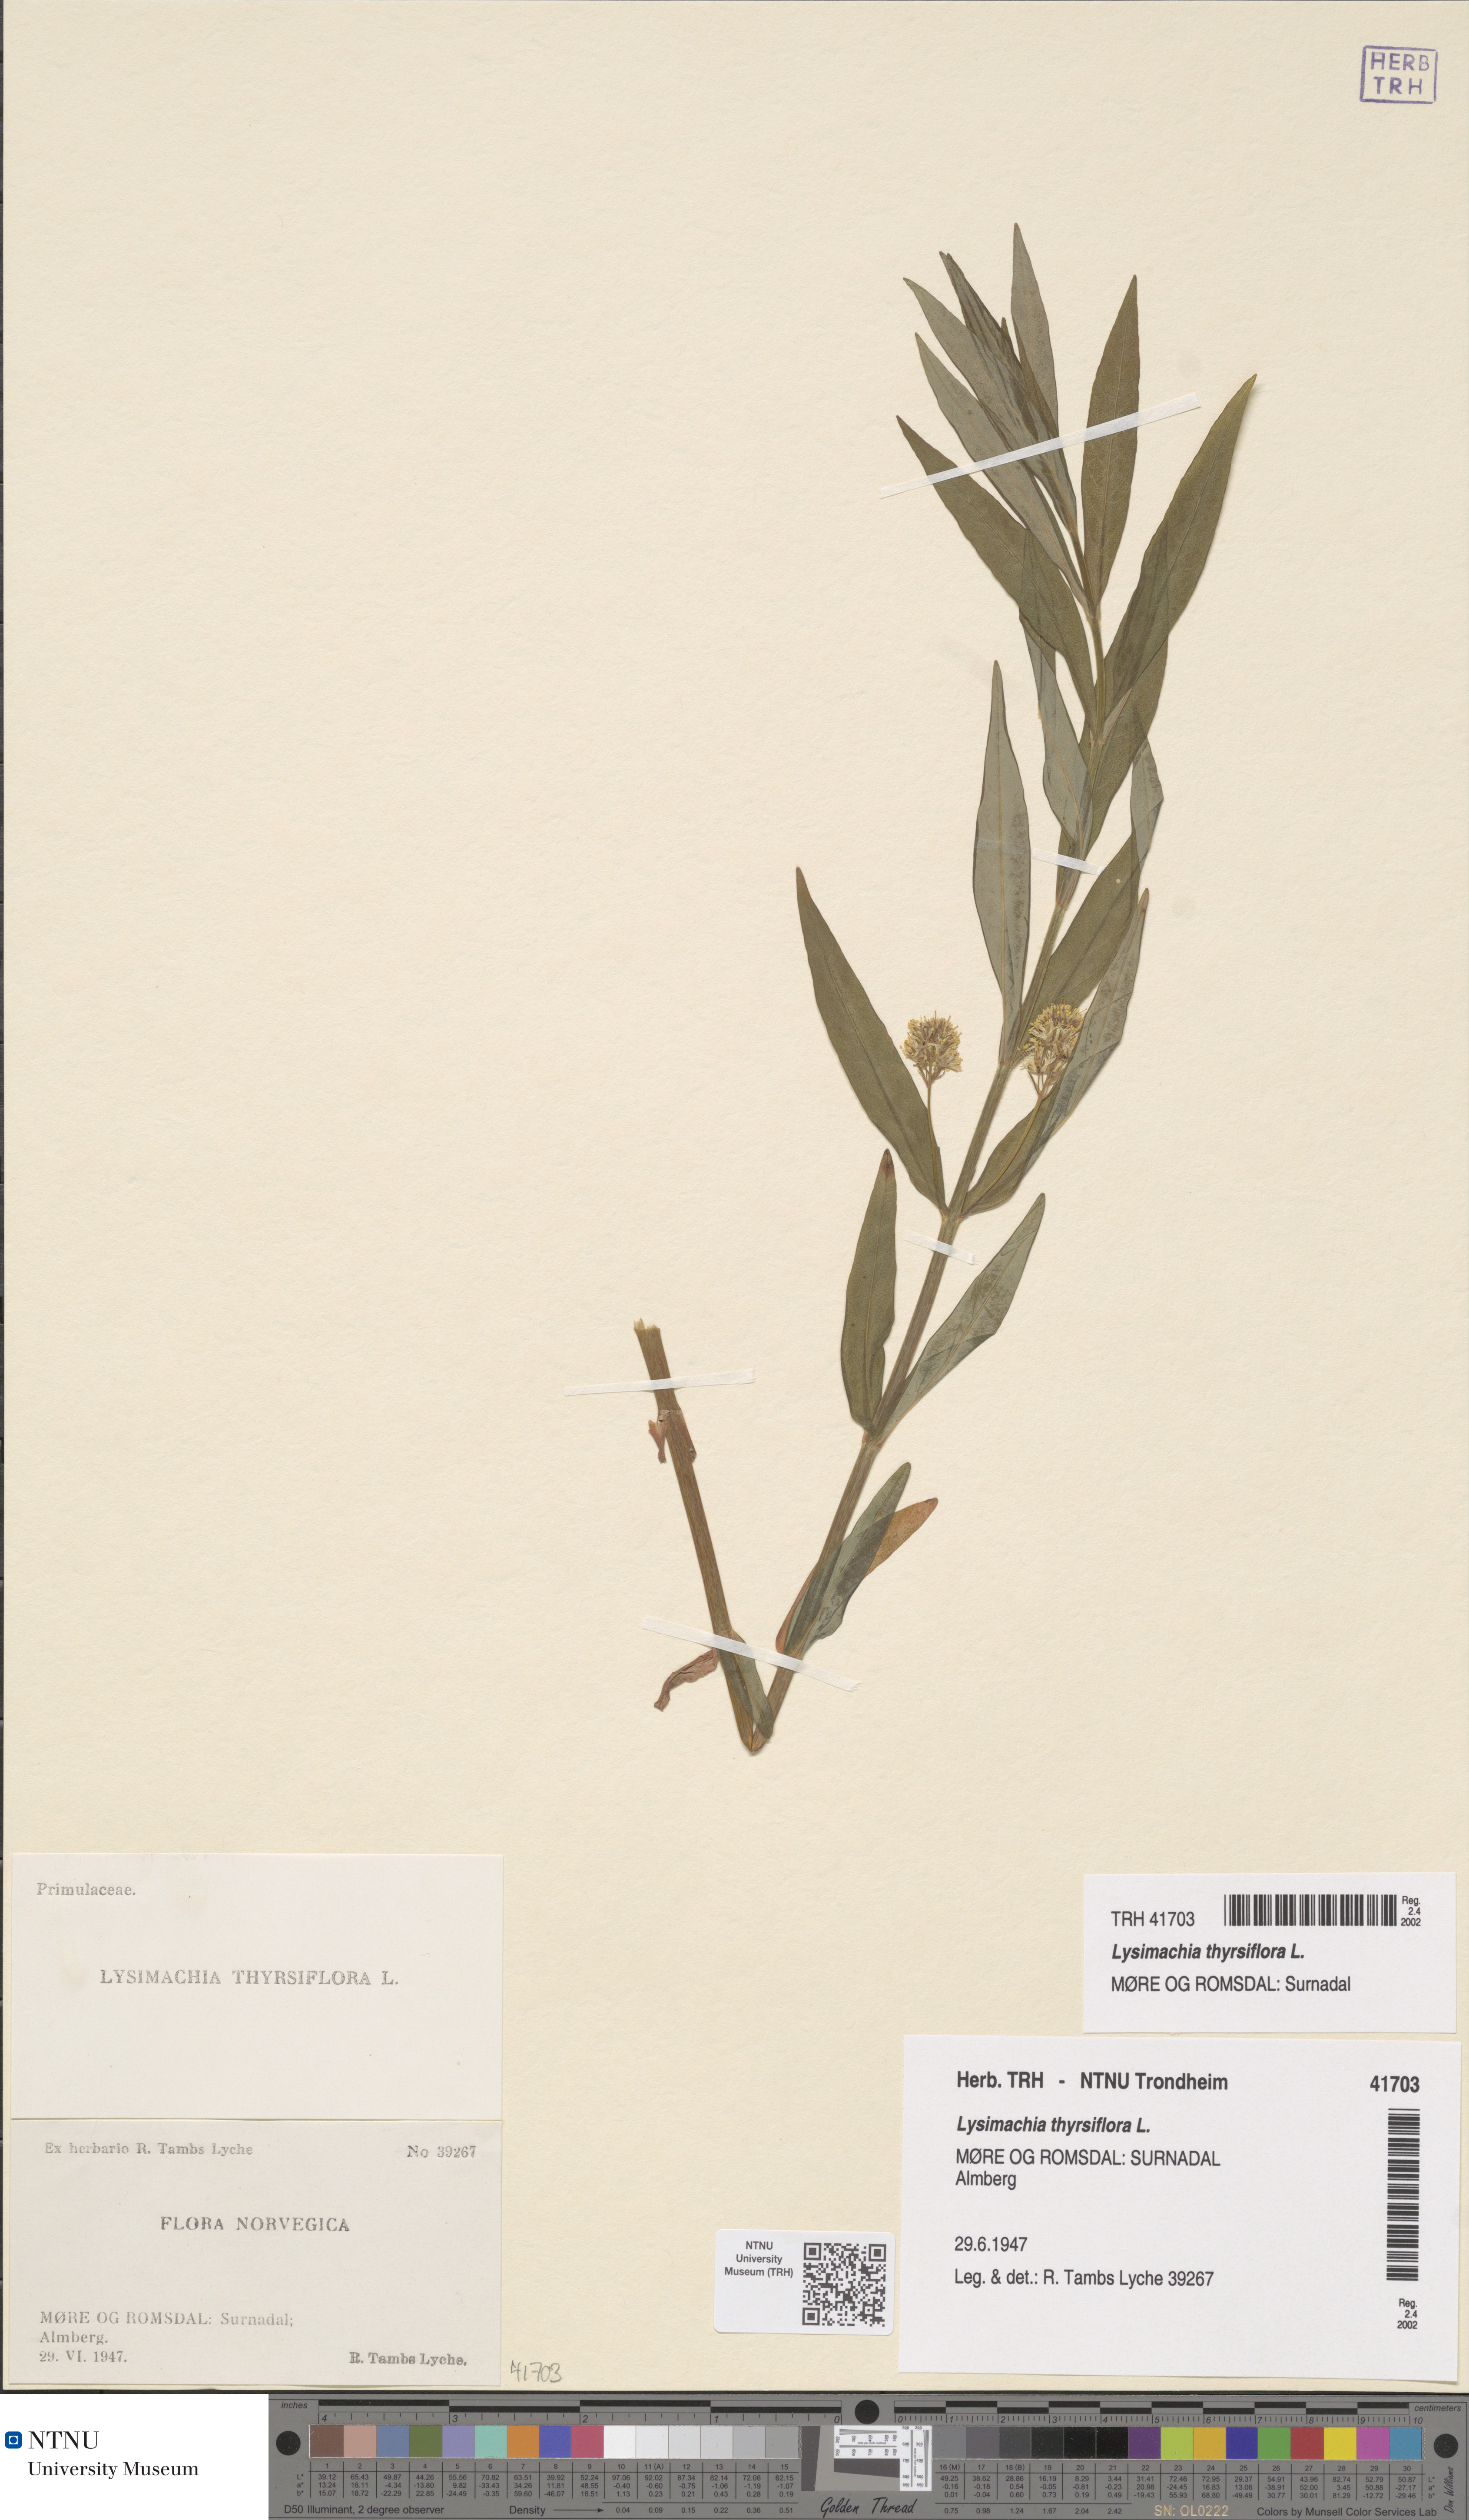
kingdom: Plantae
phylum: Tracheophyta
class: Magnoliopsida
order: Ericales
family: Primulaceae
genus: Lysimachia
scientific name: Lysimachia thyrsiflora
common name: Tufted loosestrife
